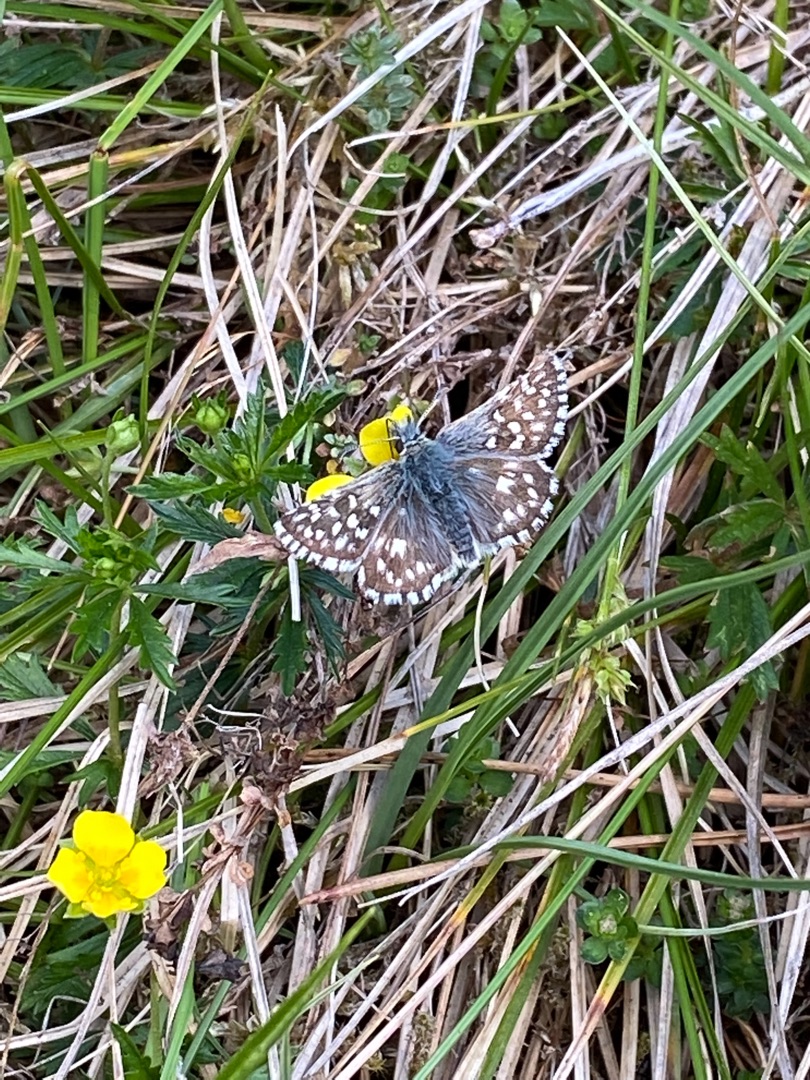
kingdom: Animalia
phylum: Arthropoda
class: Insecta
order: Lepidoptera
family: Hesperiidae
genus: Pyrgus
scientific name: Pyrgus malvae
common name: Spættet bredpande
